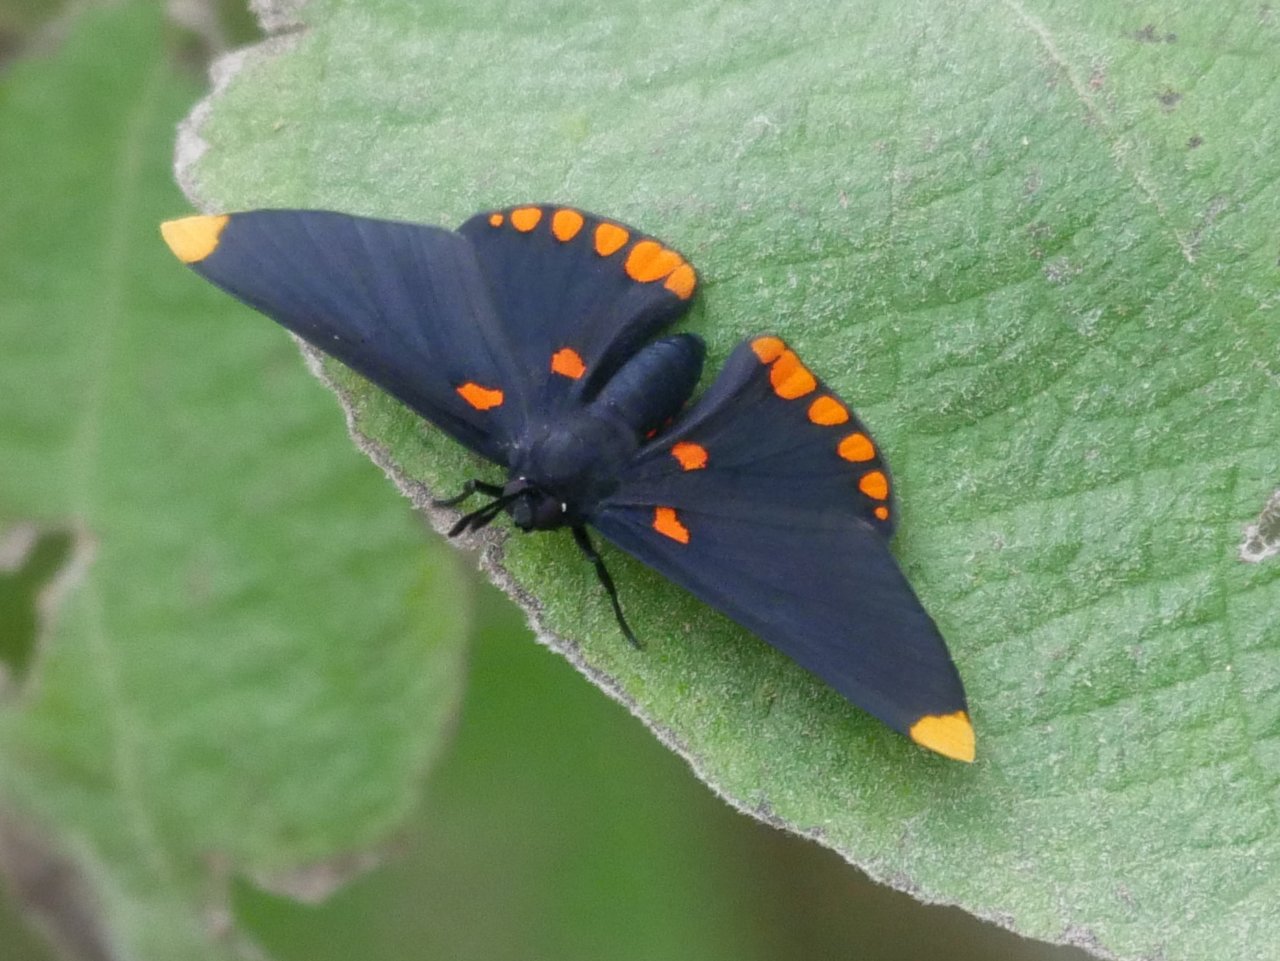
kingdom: Animalia
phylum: Arthropoda
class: Insecta
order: Lepidoptera
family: Lycaenidae
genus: Melanis
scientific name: Melanis pixe
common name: Red-bordered Pixie
